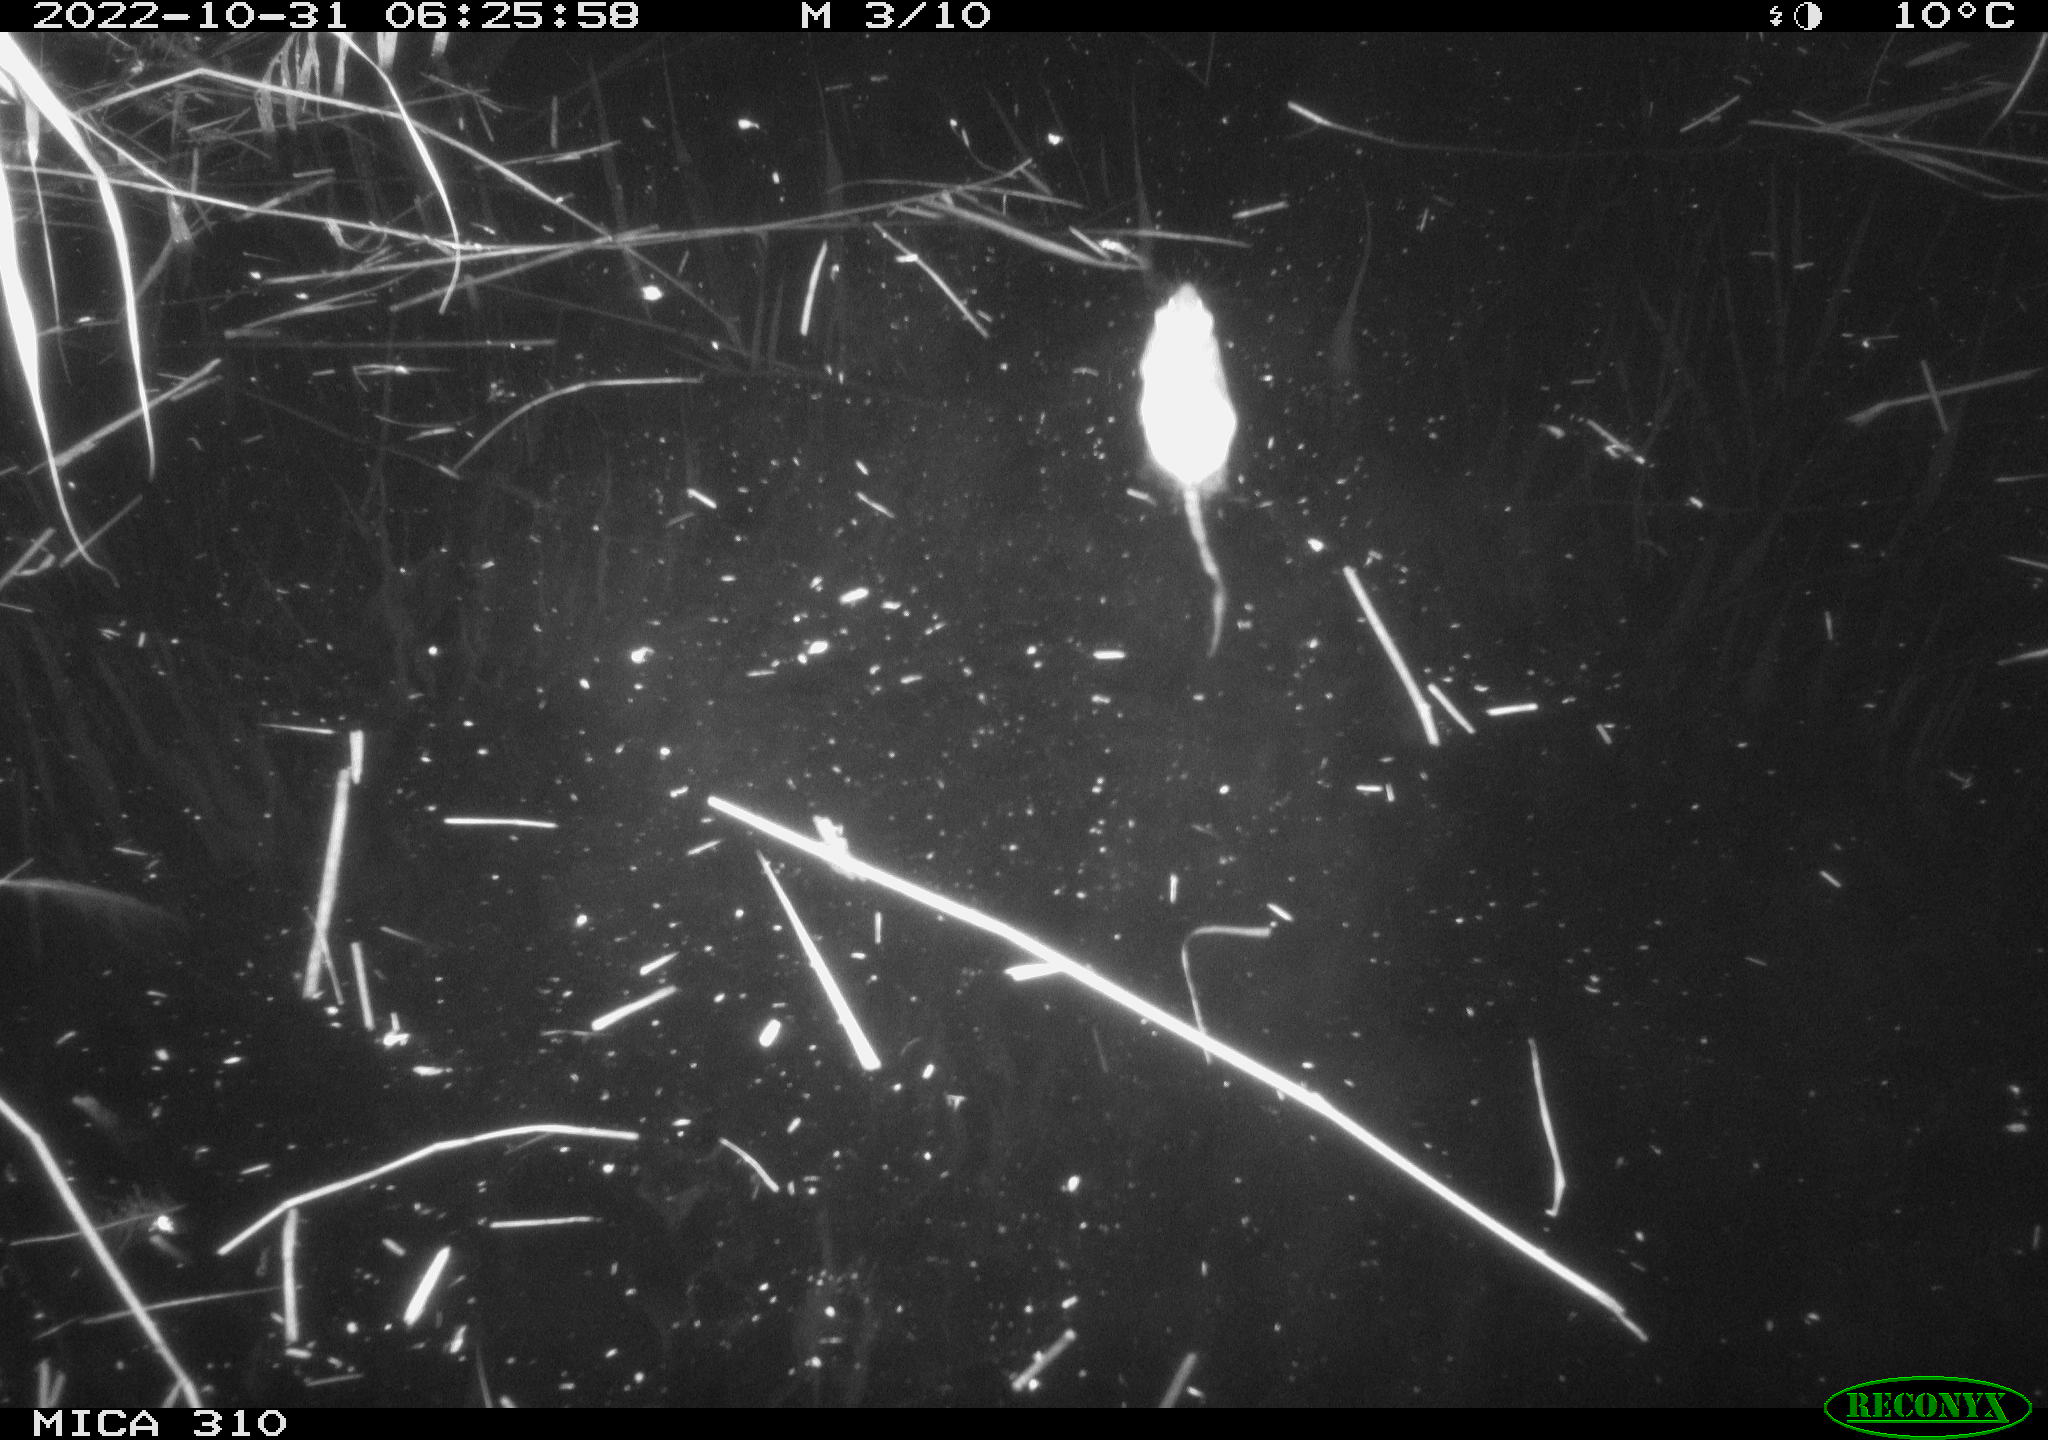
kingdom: Animalia
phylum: Chordata
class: Mammalia
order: Rodentia
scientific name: Rodentia
